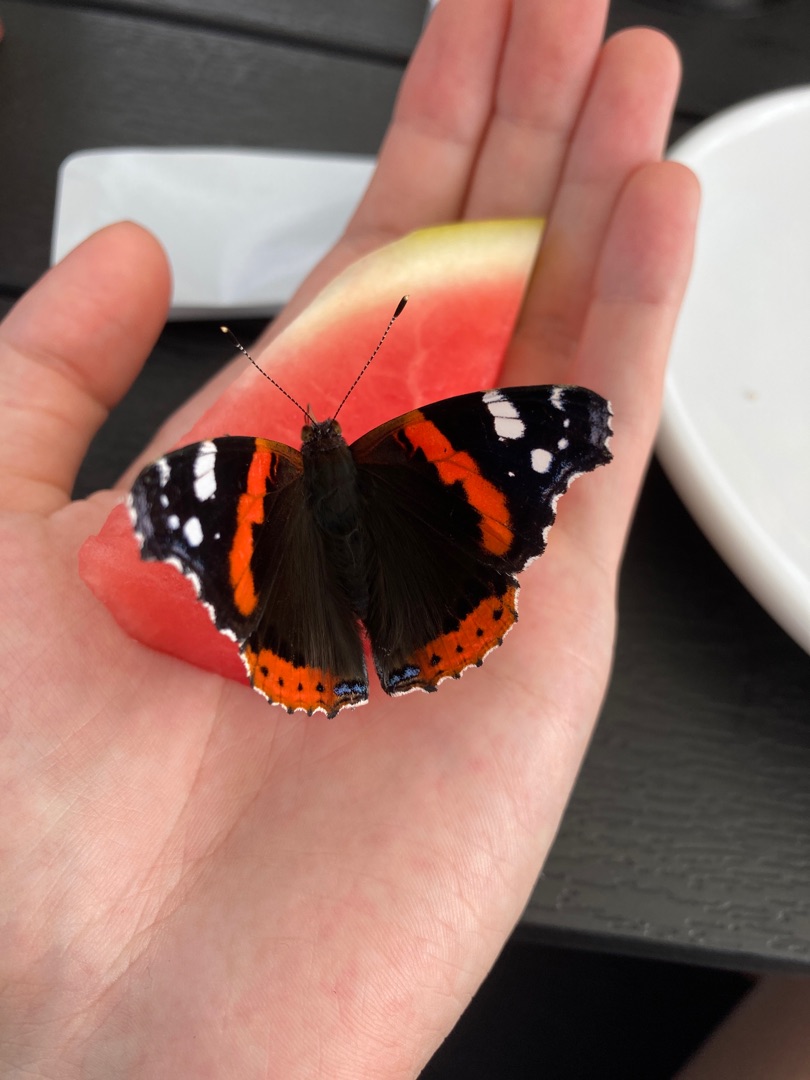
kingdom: Animalia
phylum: Arthropoda
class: Insecta
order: Lepidoptera
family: Nymphalidae
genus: Vanessa
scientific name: Vanessa atalanta
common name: Admiral
